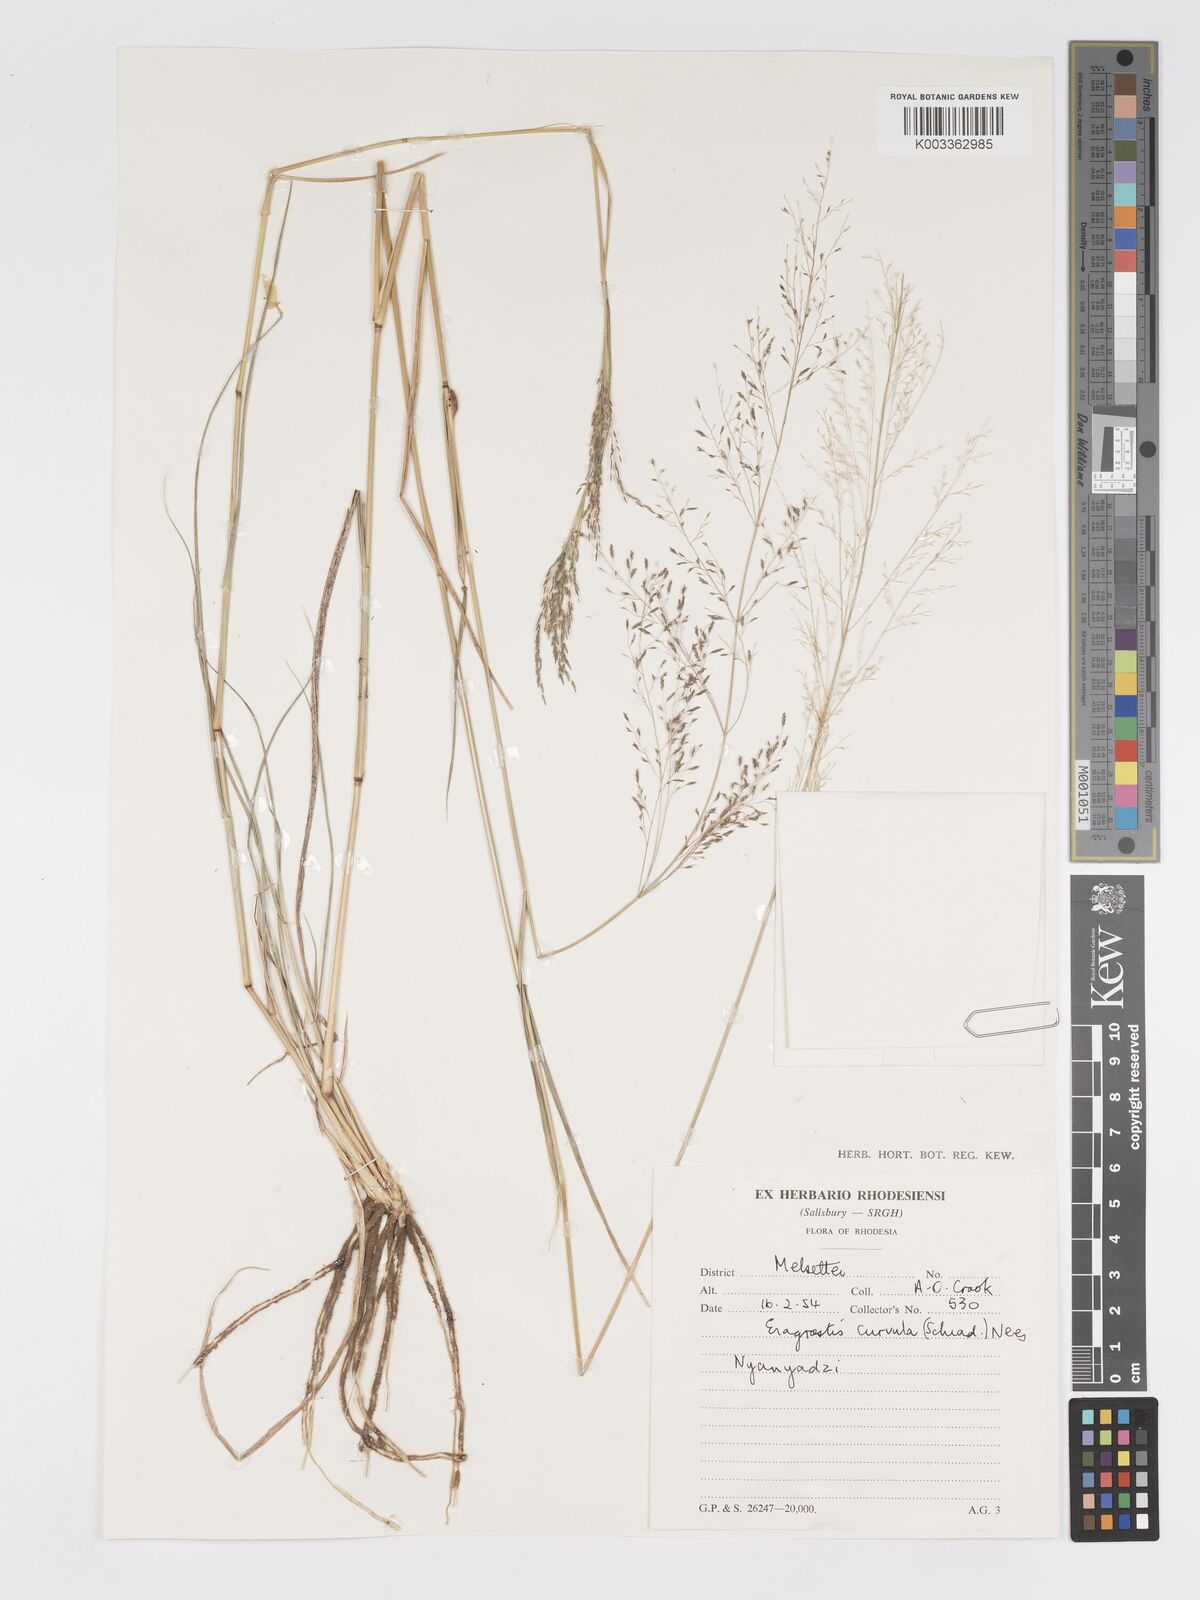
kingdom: Plantae
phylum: Tracheophyta
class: Liliopsida
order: Poales
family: Poaceae
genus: Eragrostis
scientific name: Eragrostis cylindriflora
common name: Cylinderflower lovegrass
